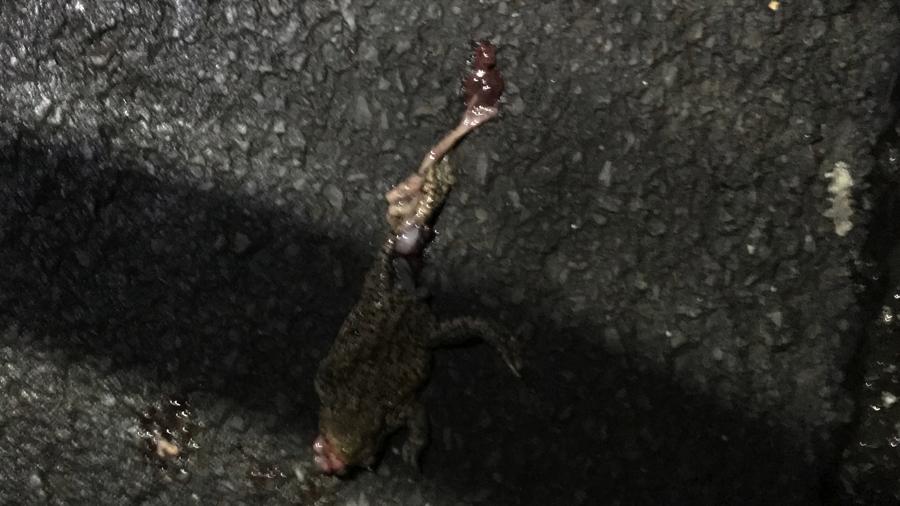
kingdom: Animalia
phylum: Chordata
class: Amphibia
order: Anura
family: Bufonidae
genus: Bufo
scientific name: Bufo bufo
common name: Common toad
